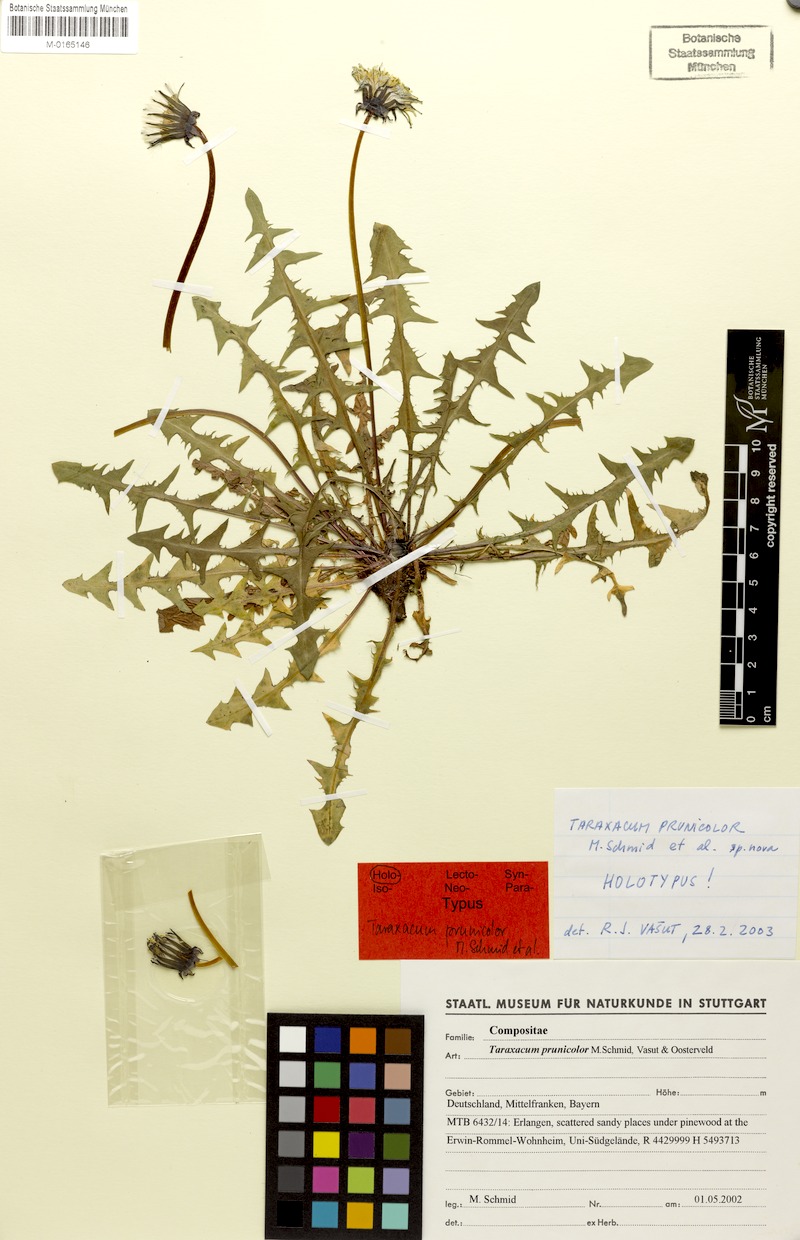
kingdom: Plantae
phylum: Tracheophyta
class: Magnoliopsida
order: Asterales
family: Asteraceae
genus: Taraxacum
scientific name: Taraxacum bellicum
